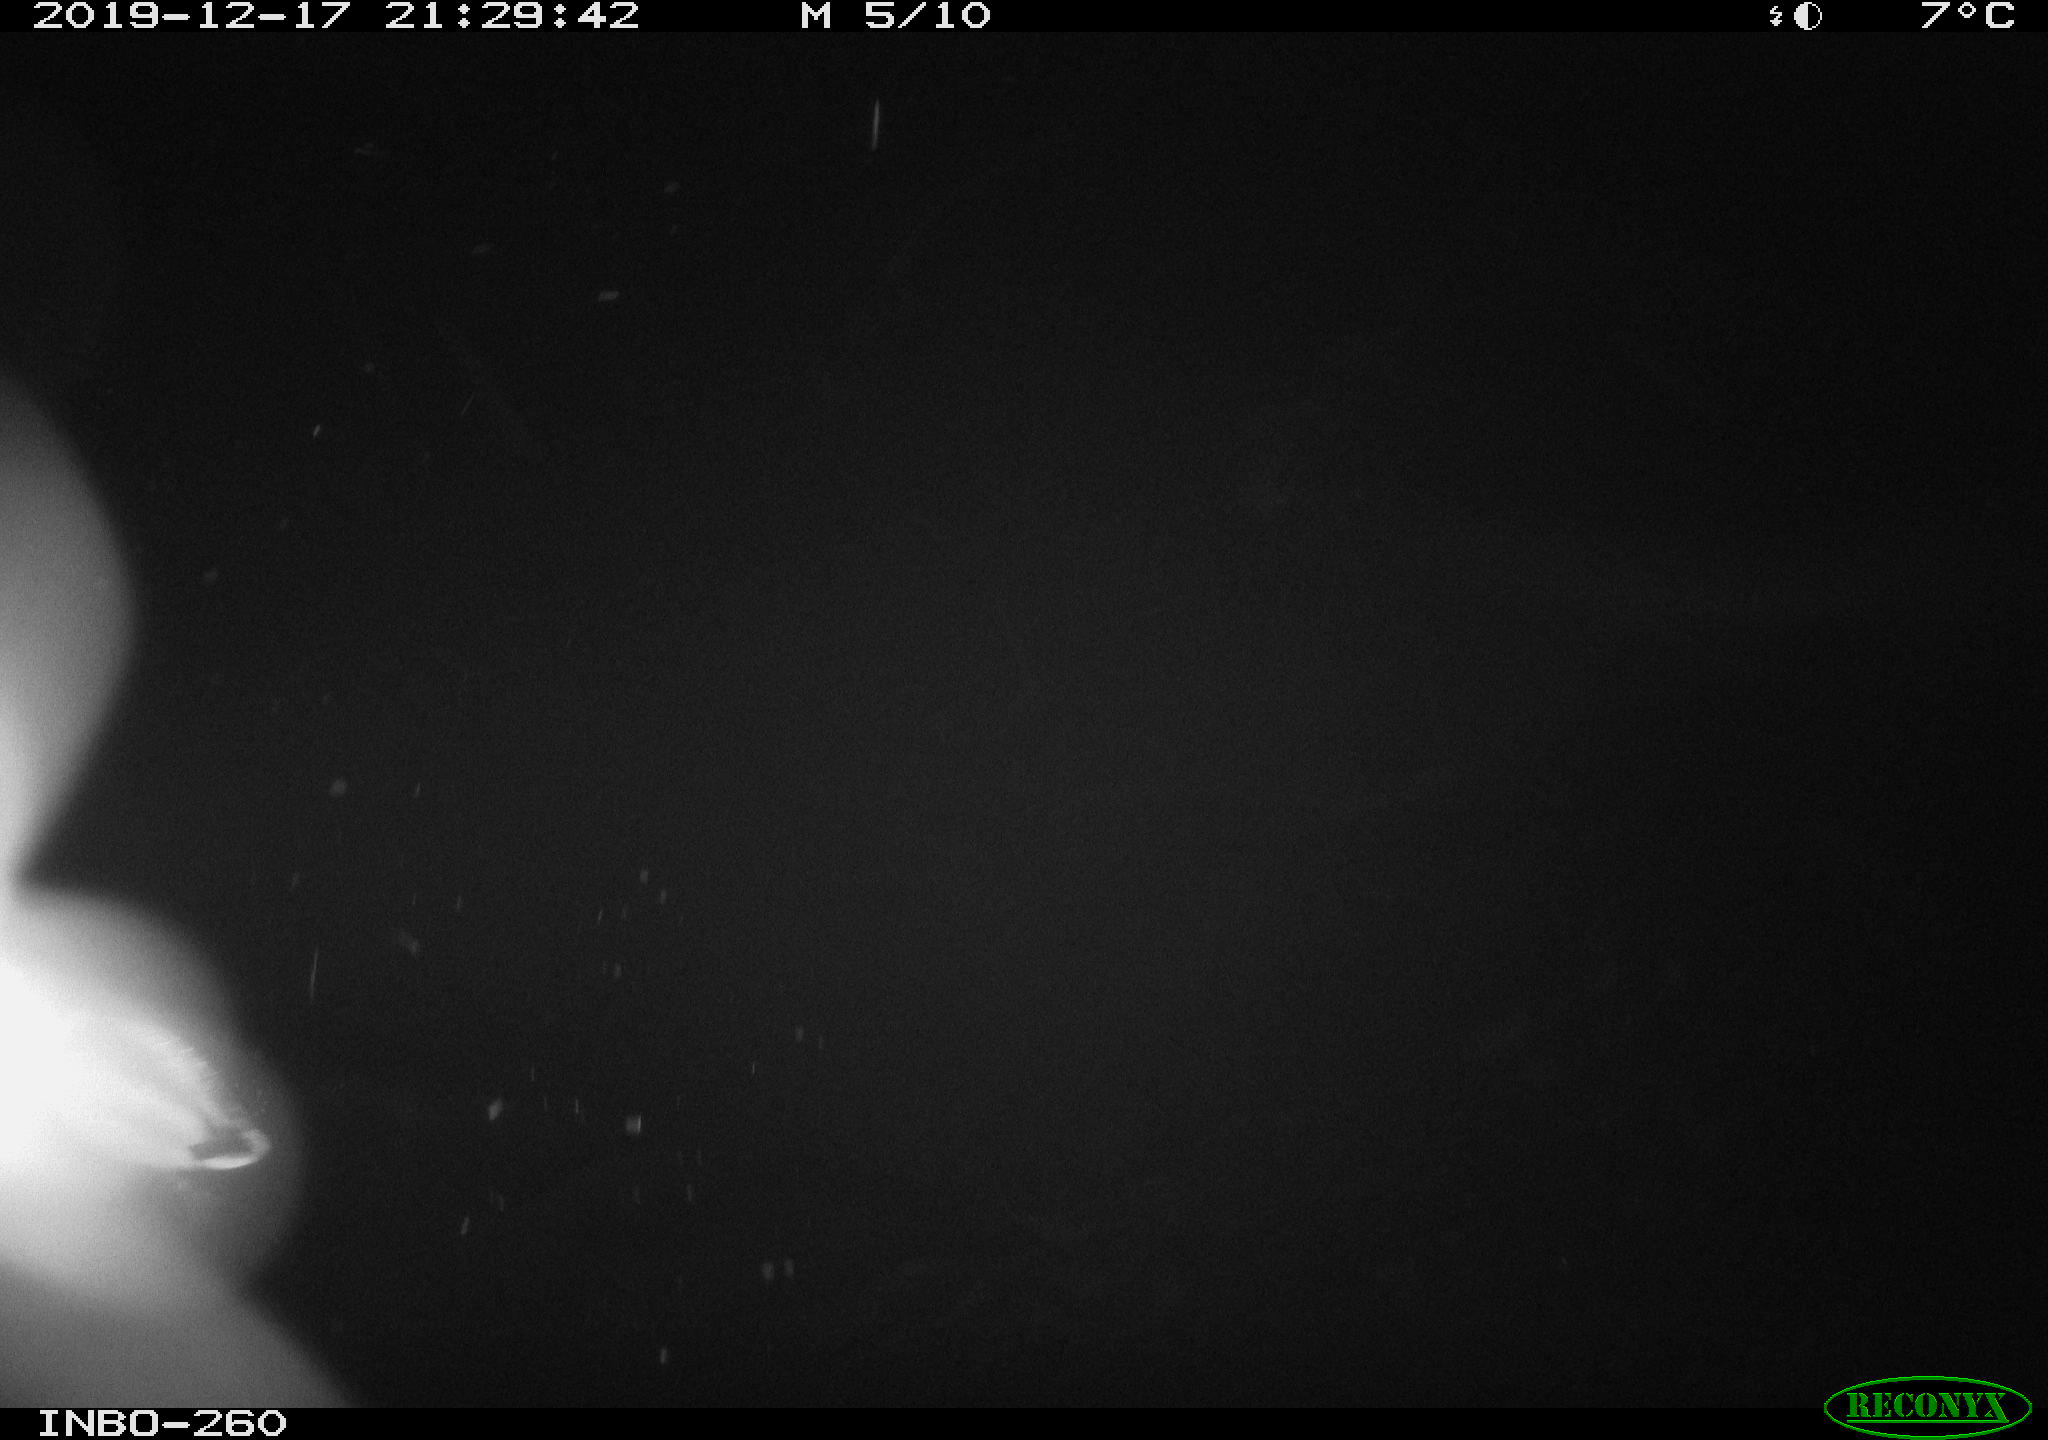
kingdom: Animalia
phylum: Chordata
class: Aves
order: Anseriformes
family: Anatidae
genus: Anas
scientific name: Anas platyrhynchos
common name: Mallard
